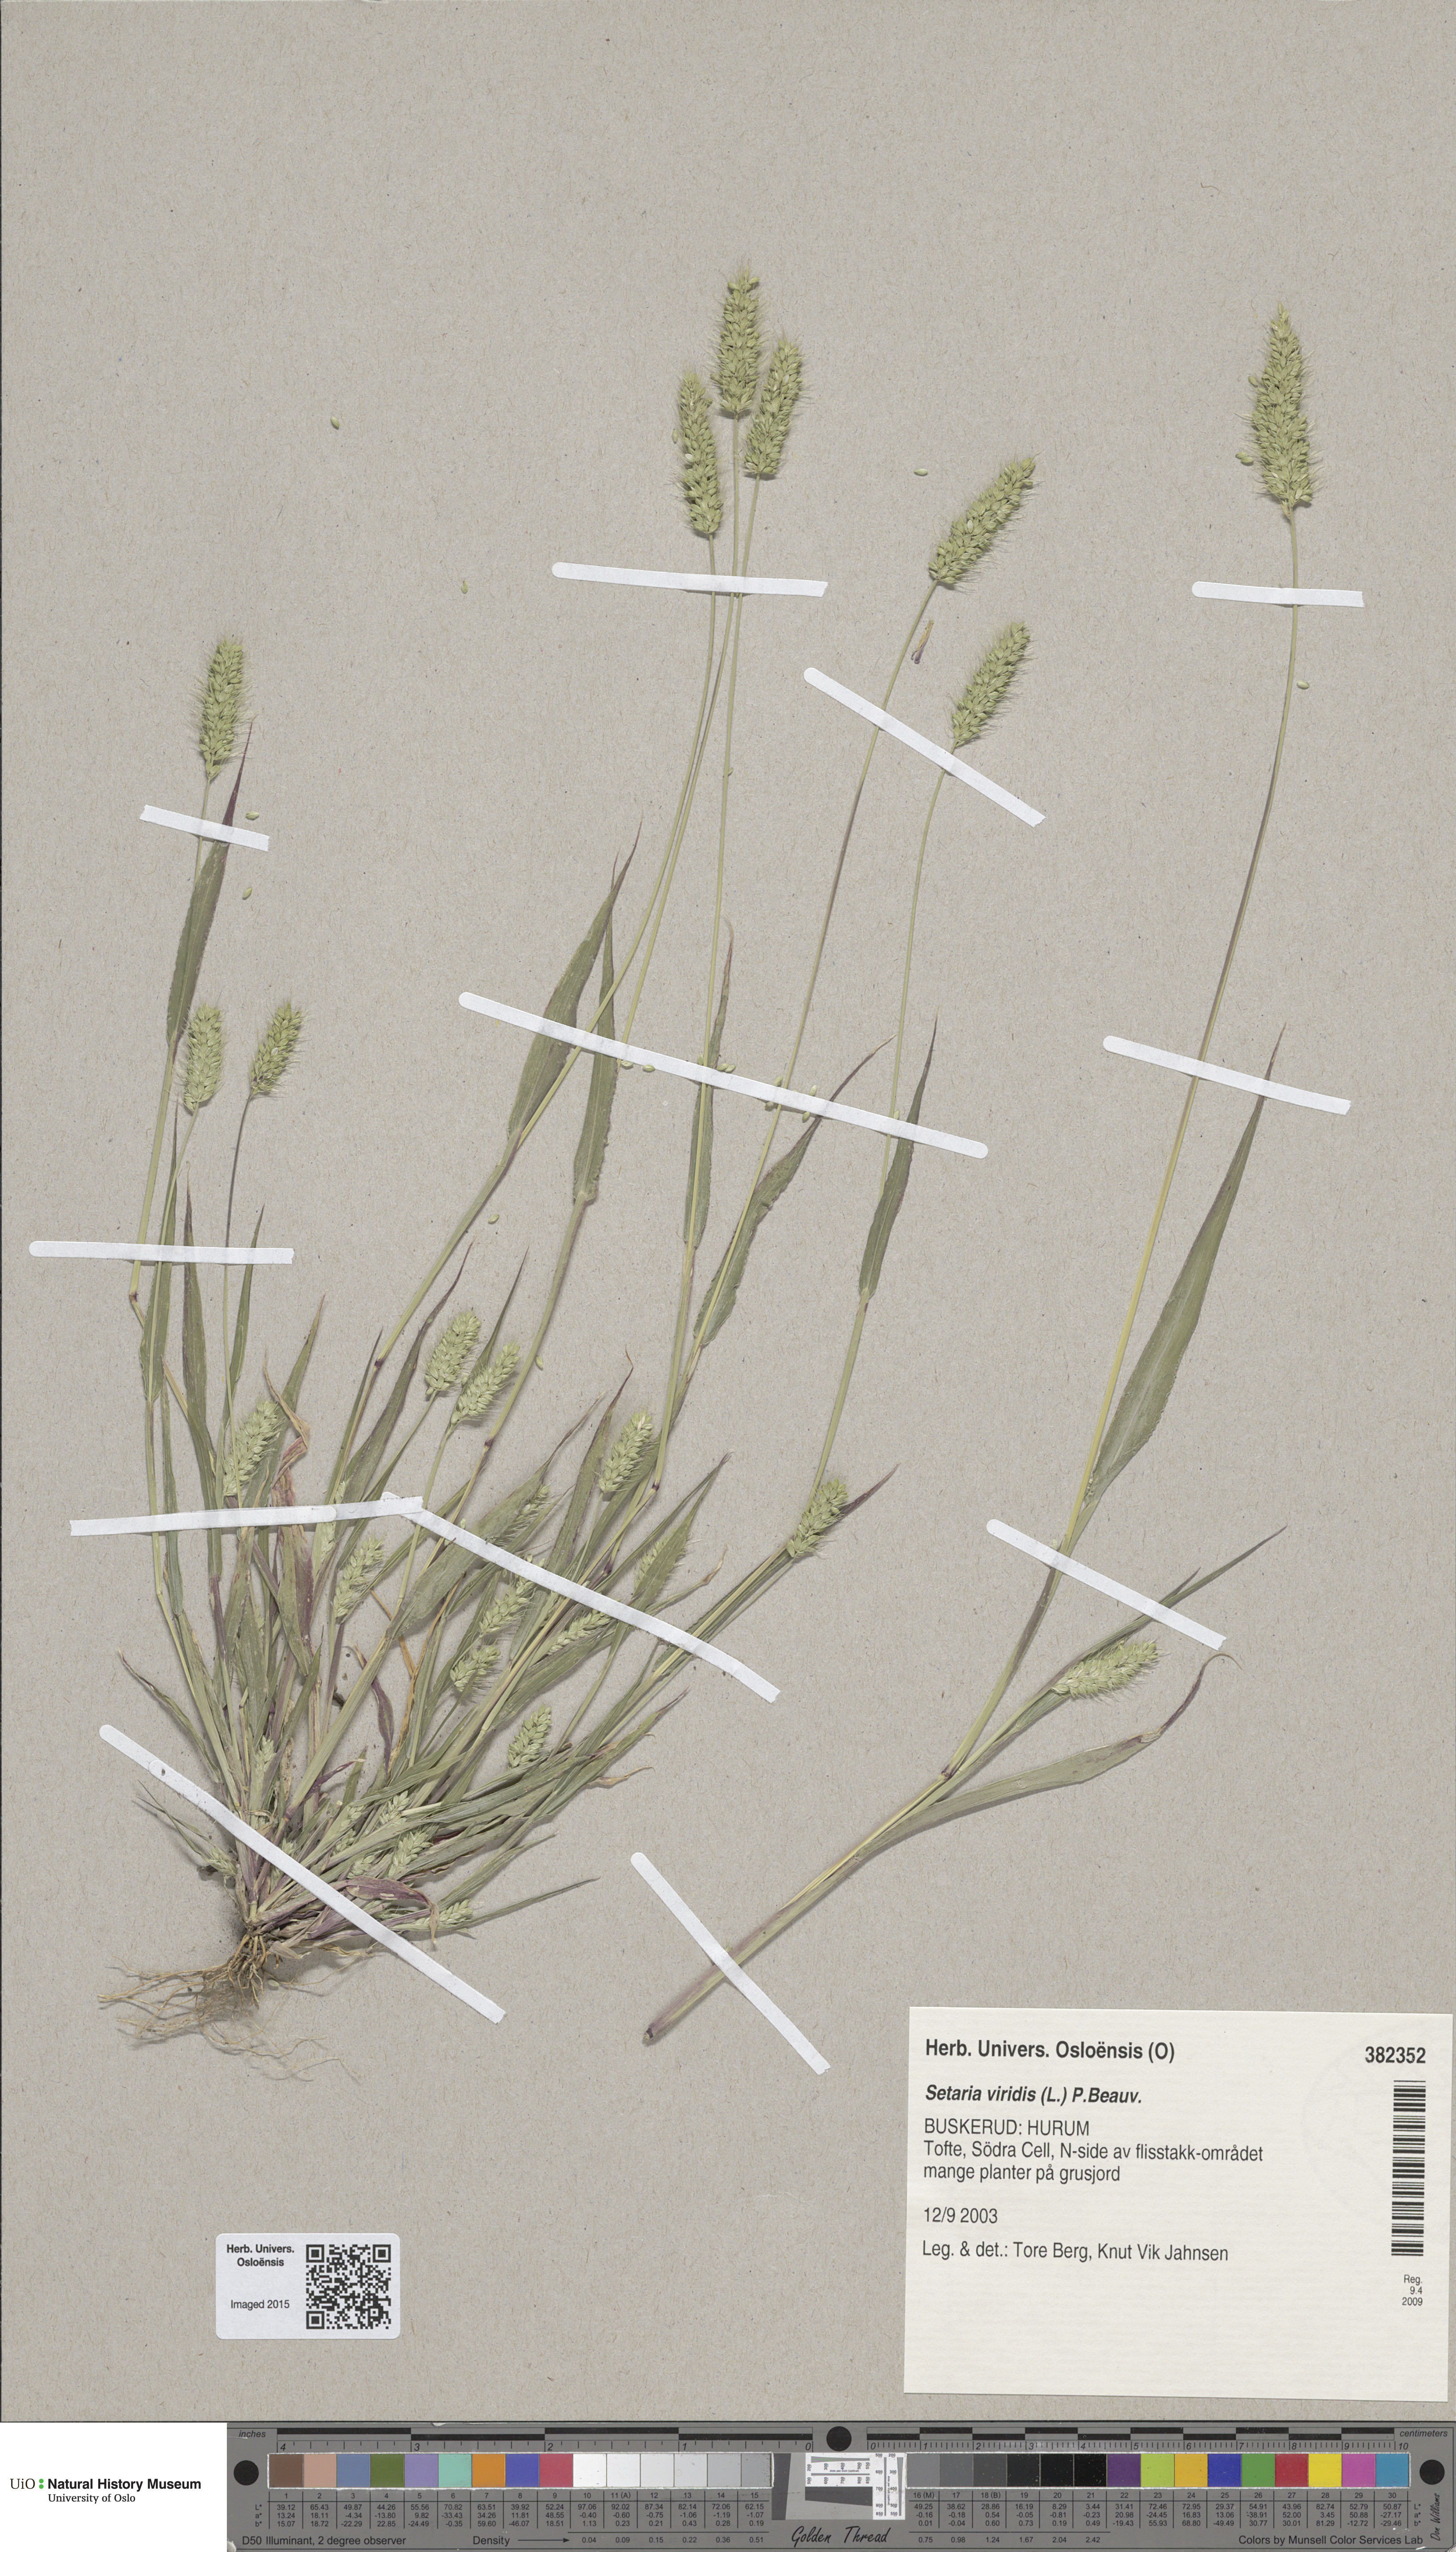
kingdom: Plantae
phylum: Tracheophyta
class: Liliopsida
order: Poales
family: Poaceae
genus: Setaria
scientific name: Setaria viridis
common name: Green bristlegrass
